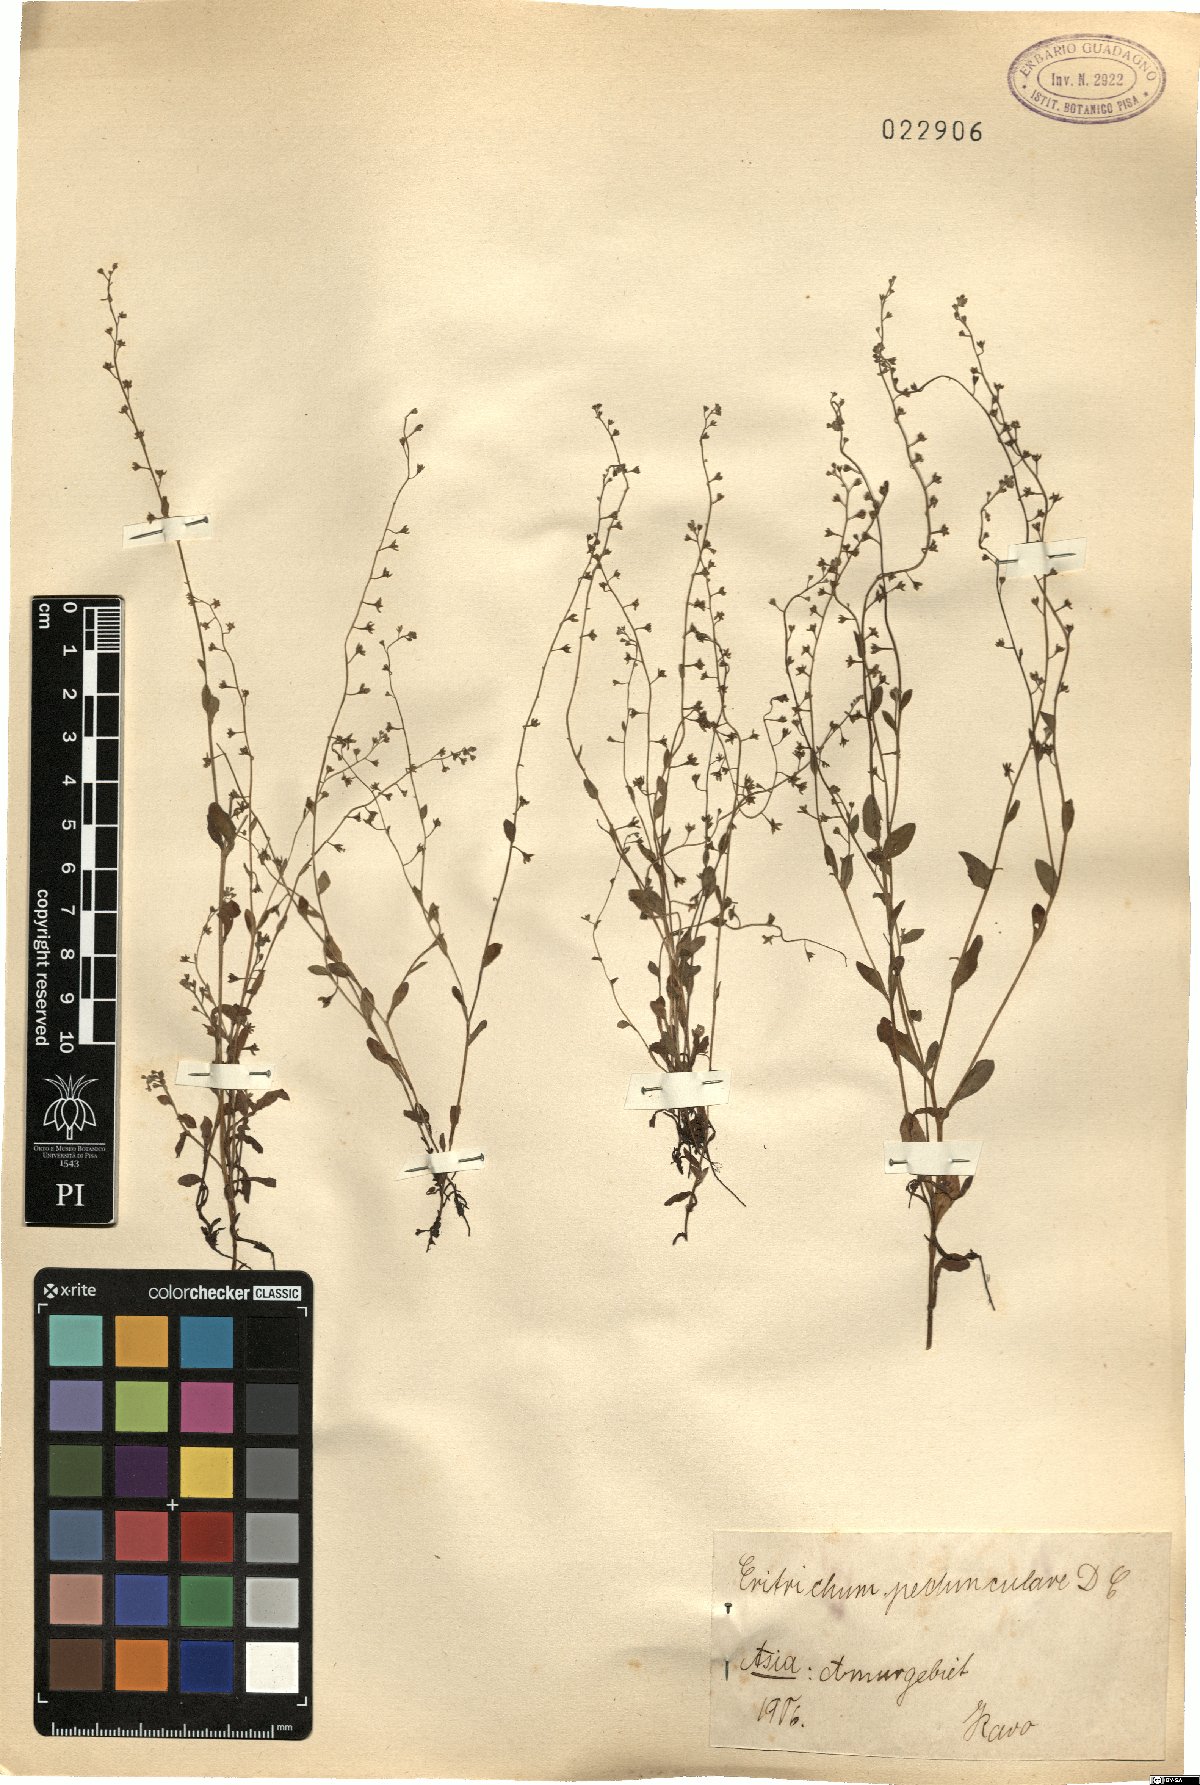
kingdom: Plantae
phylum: Tracheophyta
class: Magnoliopsida
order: Boraginales
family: Boraginaceae
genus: Trigonotis
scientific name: Trigonotis peduncularis
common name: Cucumber herb
